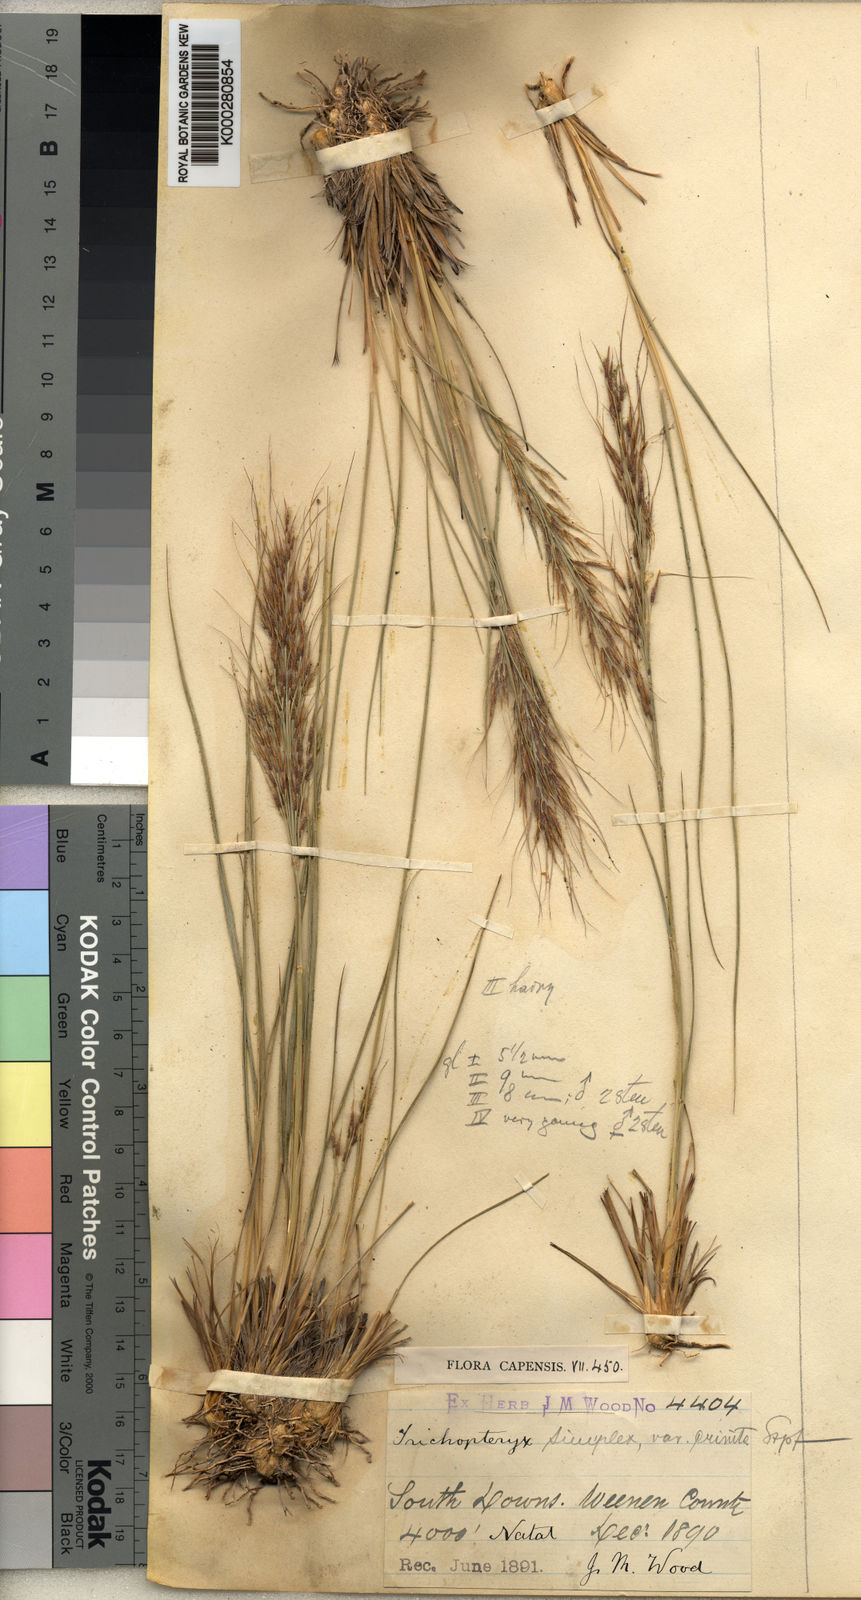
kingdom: Plantae
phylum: Tracheophyta
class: Liliopsida
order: Poales
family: Poaceae
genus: Loudetia
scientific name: Loudetia simplex
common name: Common russet grass
